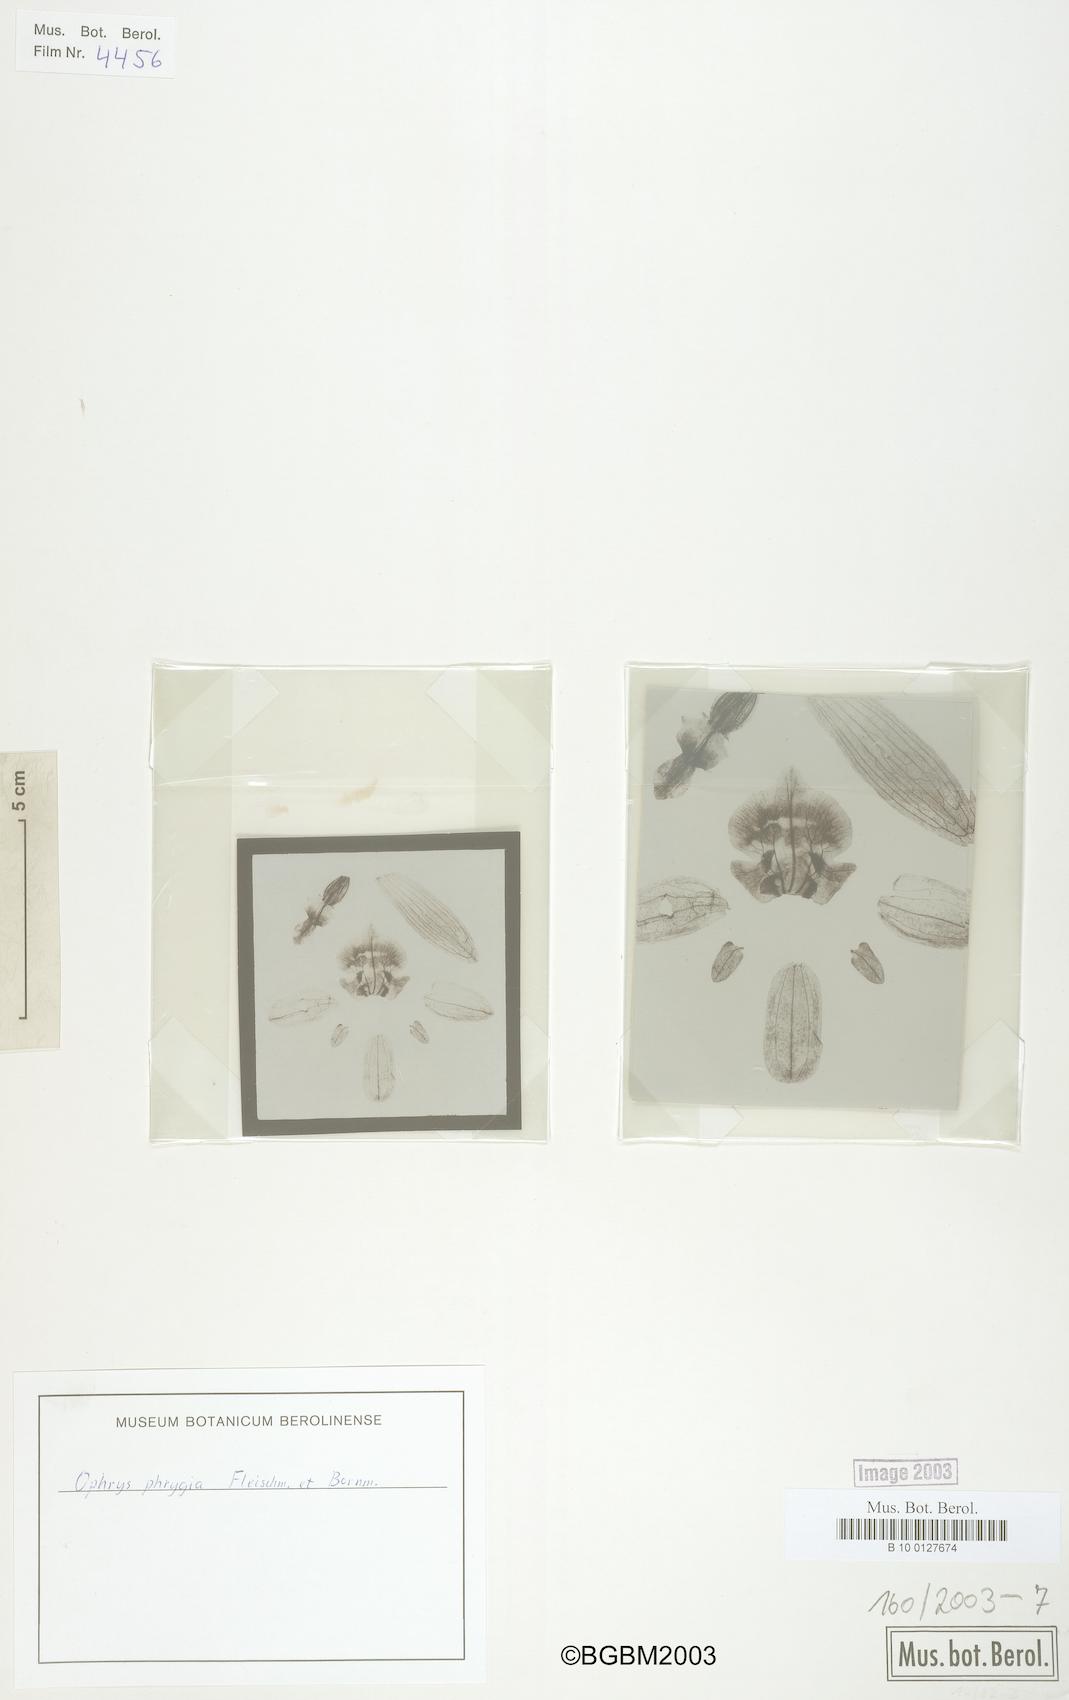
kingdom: Plantae
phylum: Tracheophyta
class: Liliopsida
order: Asparagales
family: Orchidaceae
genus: Ophrys
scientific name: Ophrys scolopax
